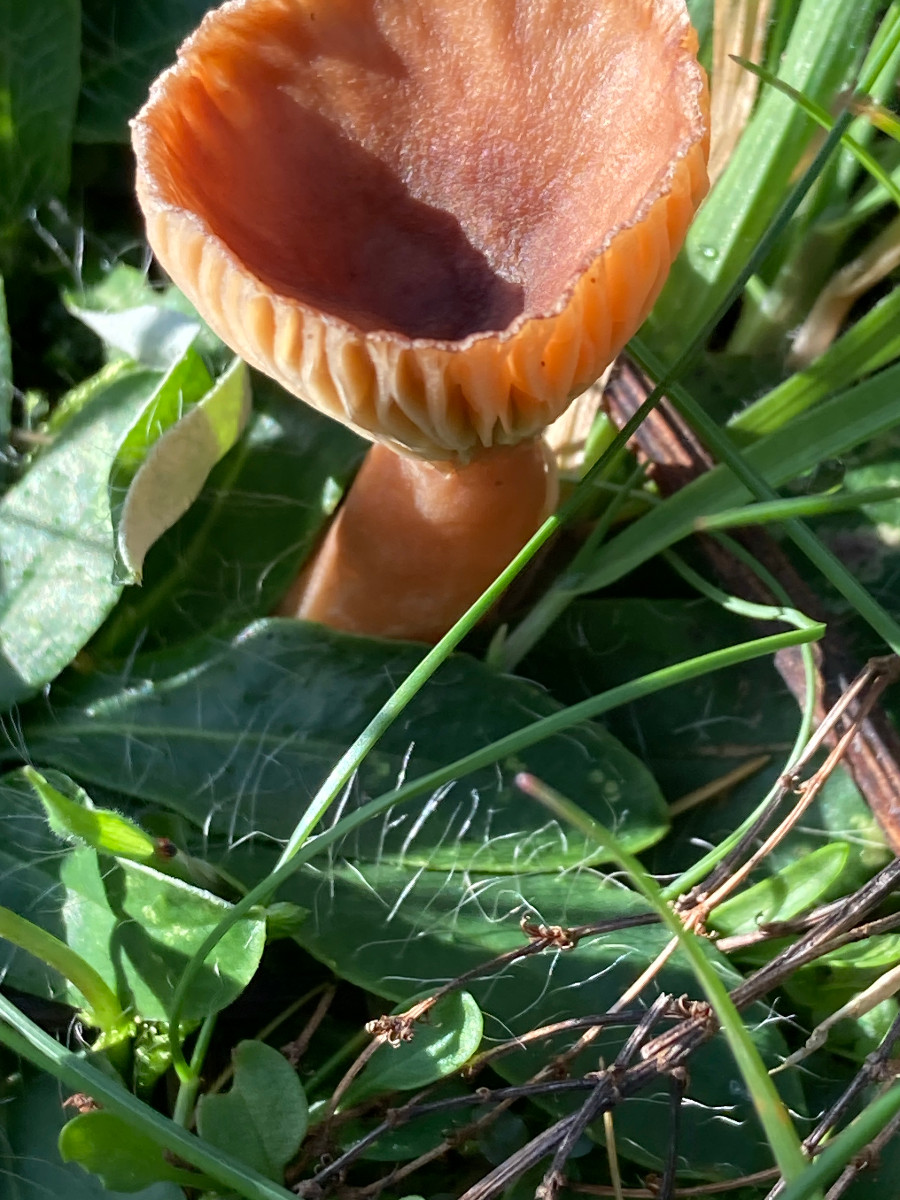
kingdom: Fungi
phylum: Basidiomycota
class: Agaricomycetes
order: Russulales
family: Russulaceae
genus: Lactarius
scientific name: Lactarius
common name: mælkehat
